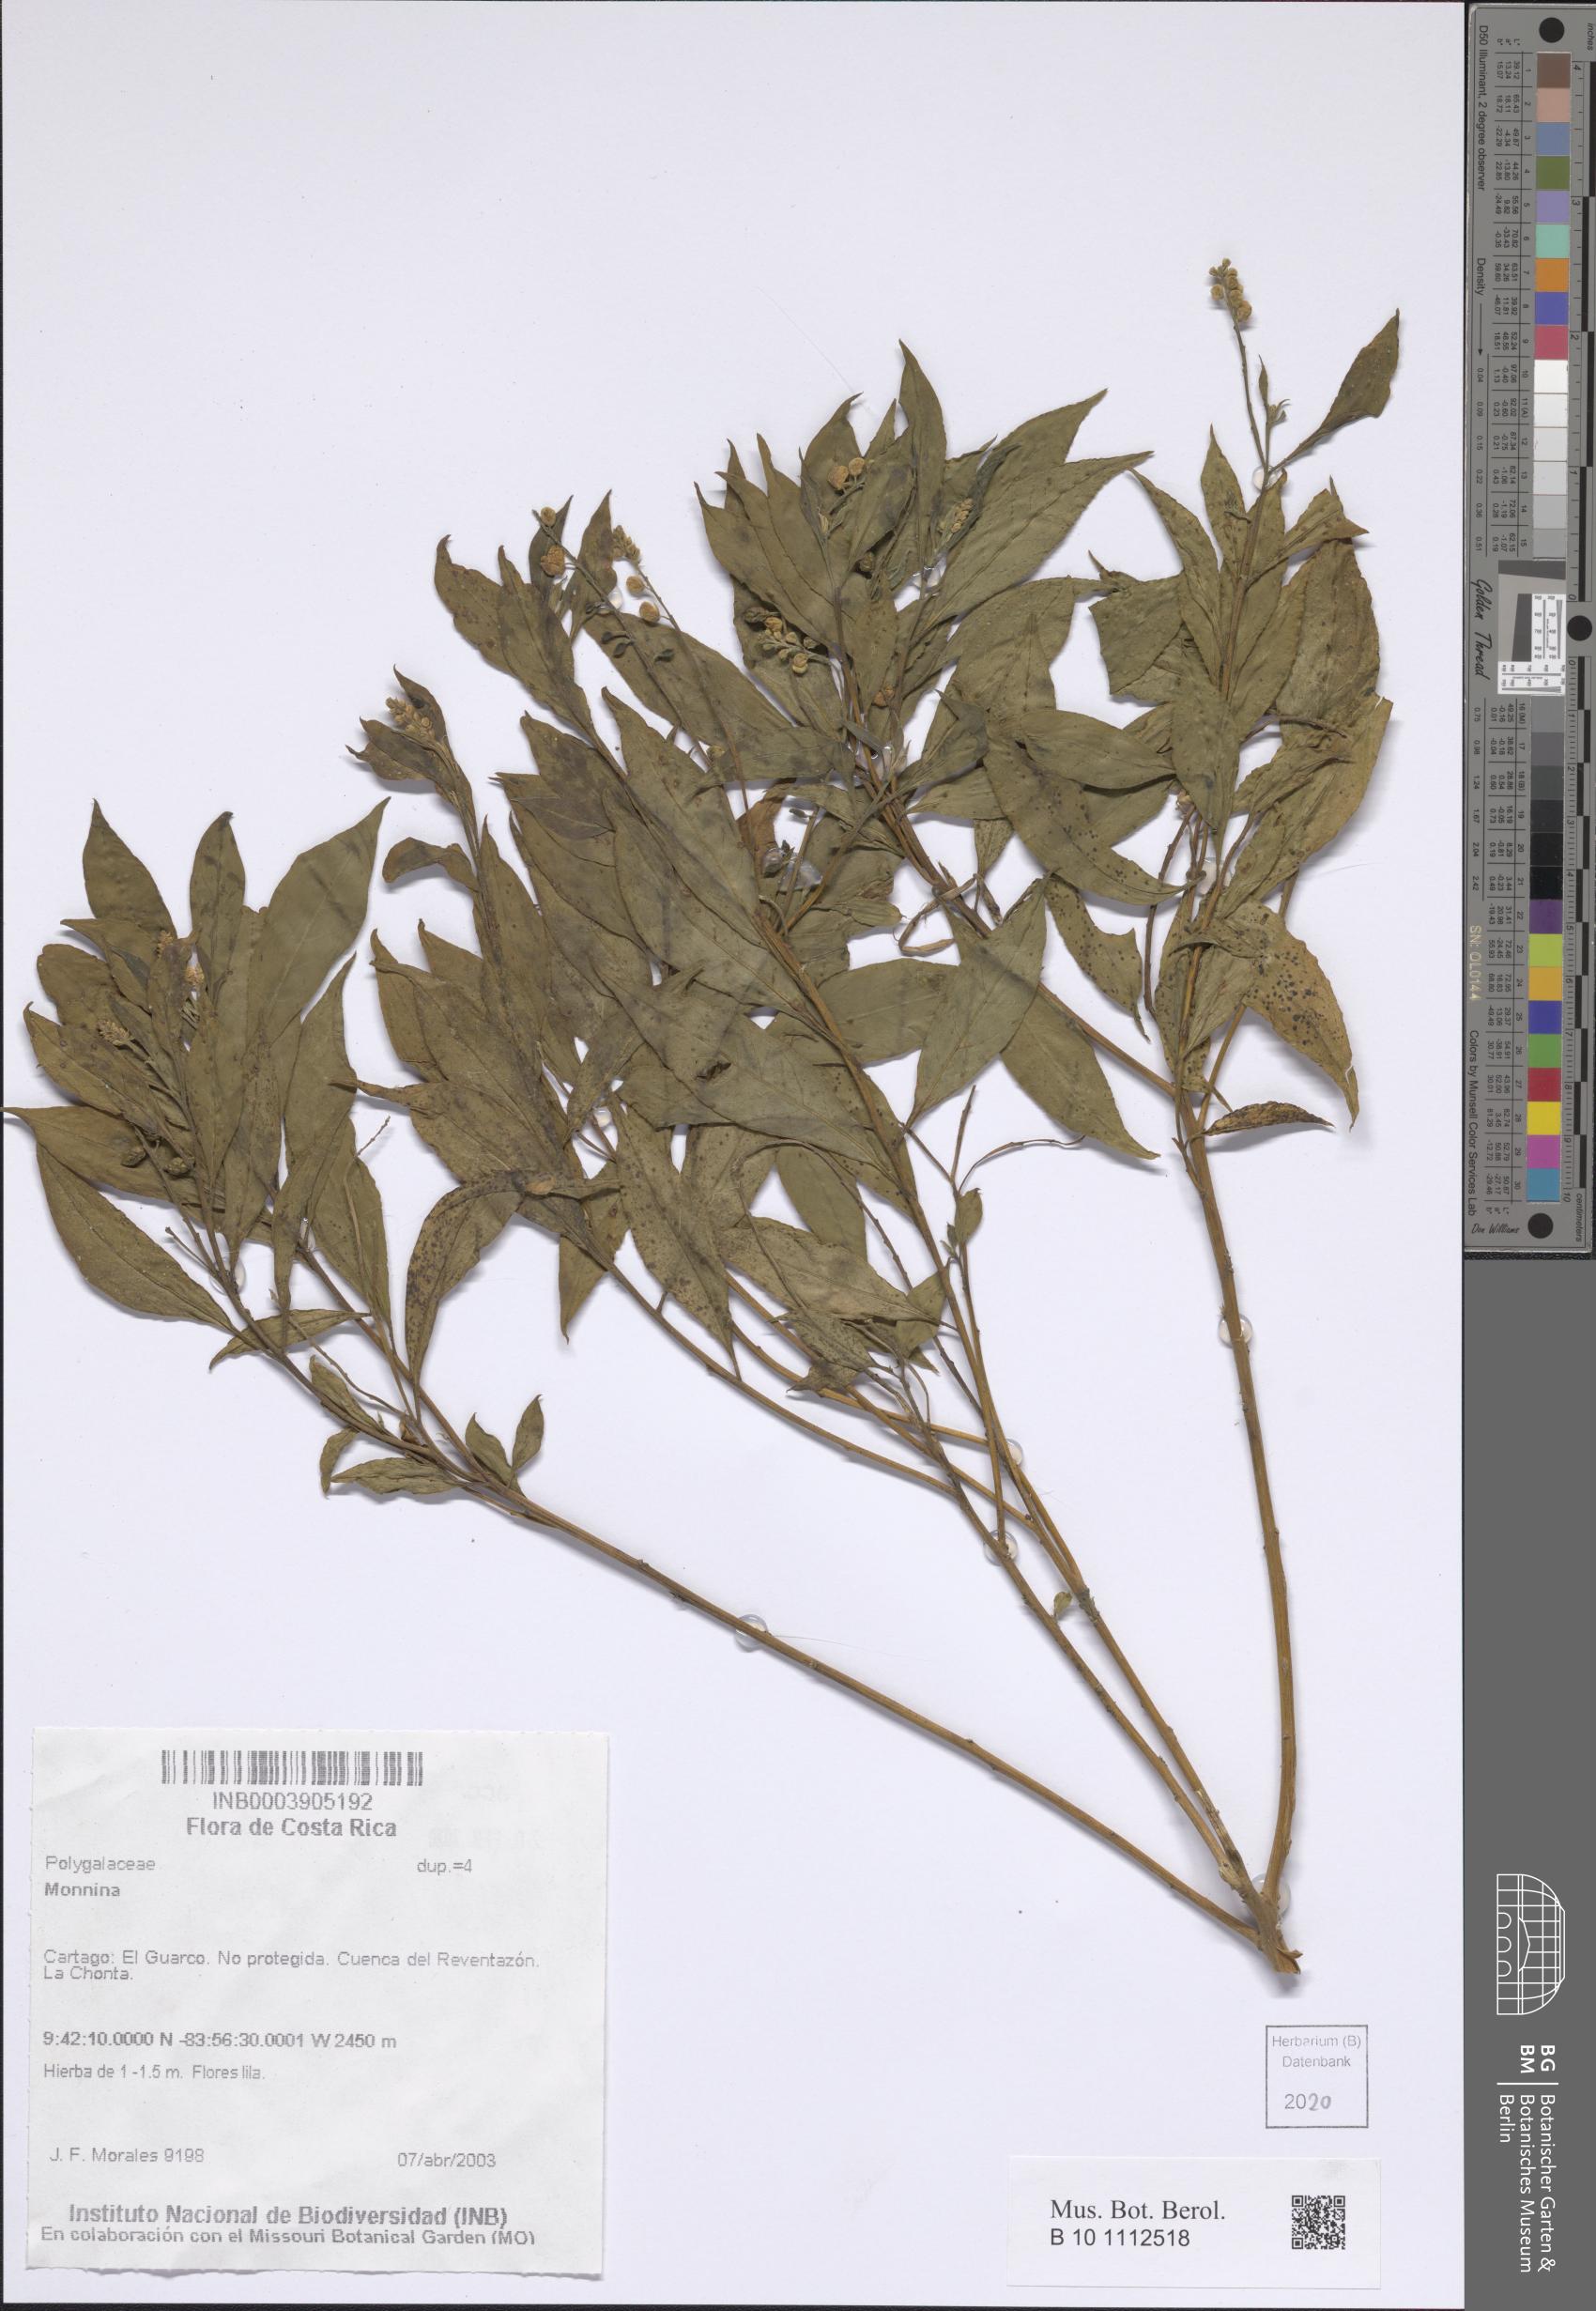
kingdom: Plantae
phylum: Tracheophyta
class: Magnoliopsida
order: Fabales
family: Polygalaceae
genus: Monnina
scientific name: Monnina
